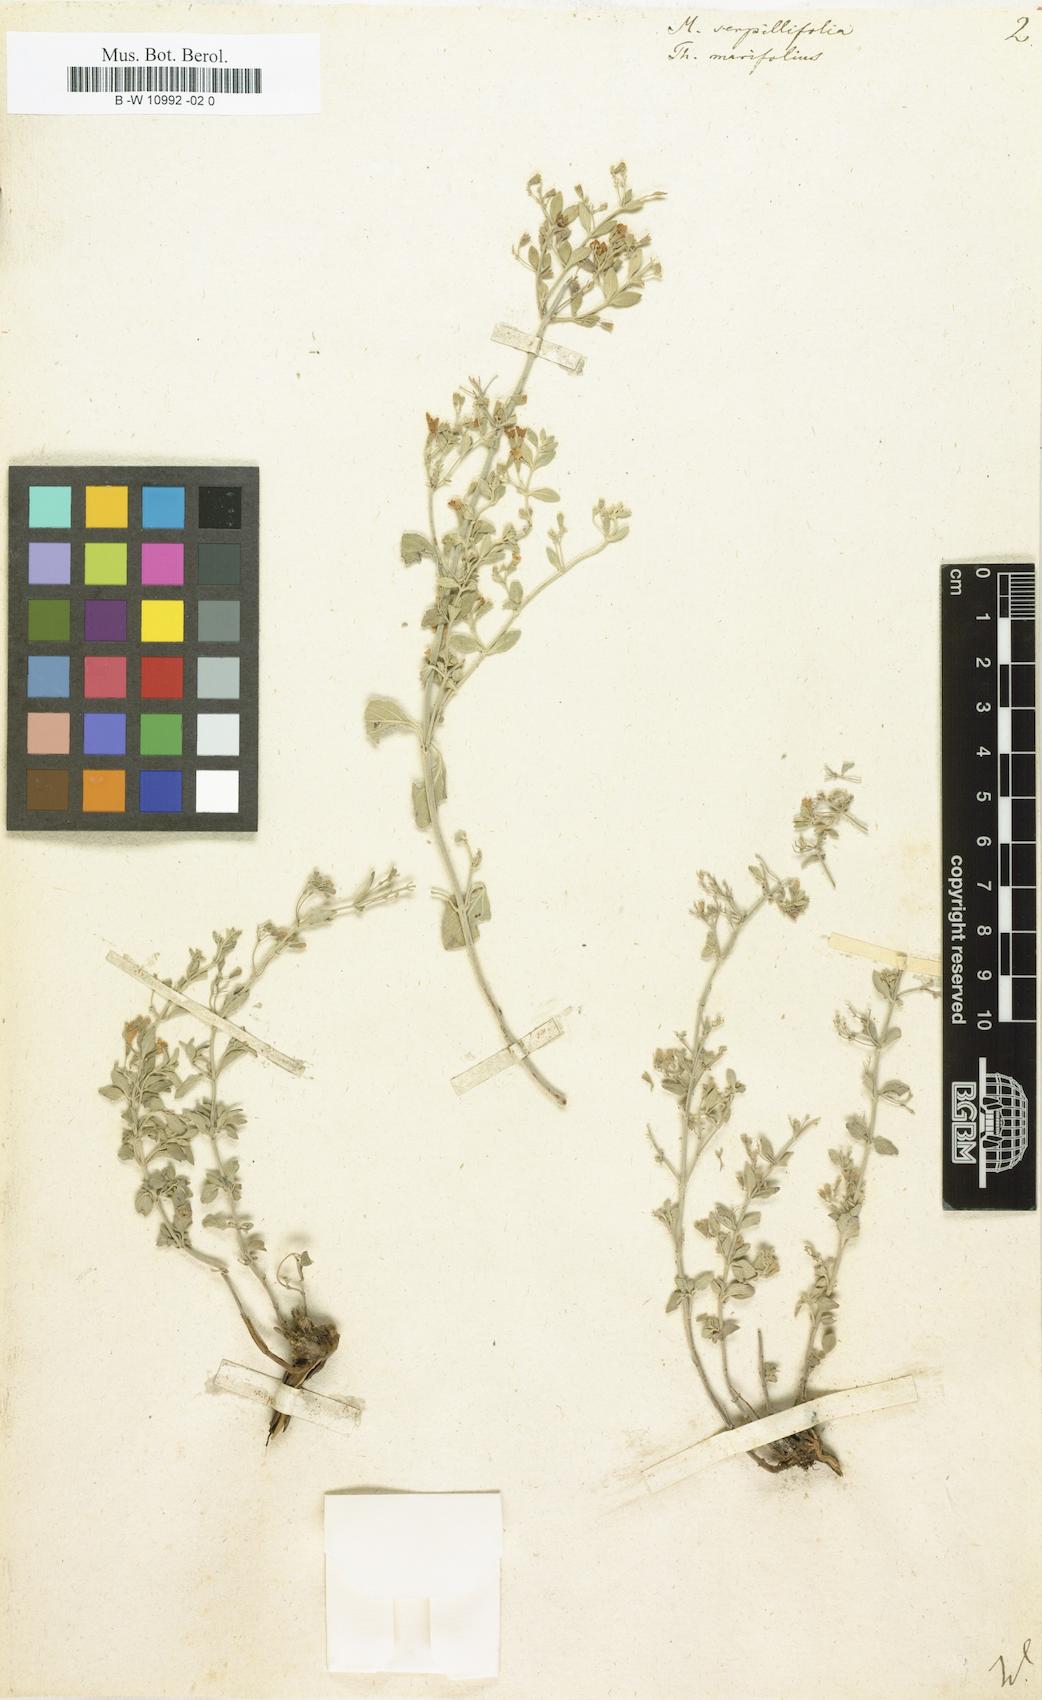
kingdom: Plantae
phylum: Tracheophyta
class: Magnoliopsida
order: Lamiales
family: Lamiaceae
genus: Clinopodium
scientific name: Clinopodium serpyllifolium
